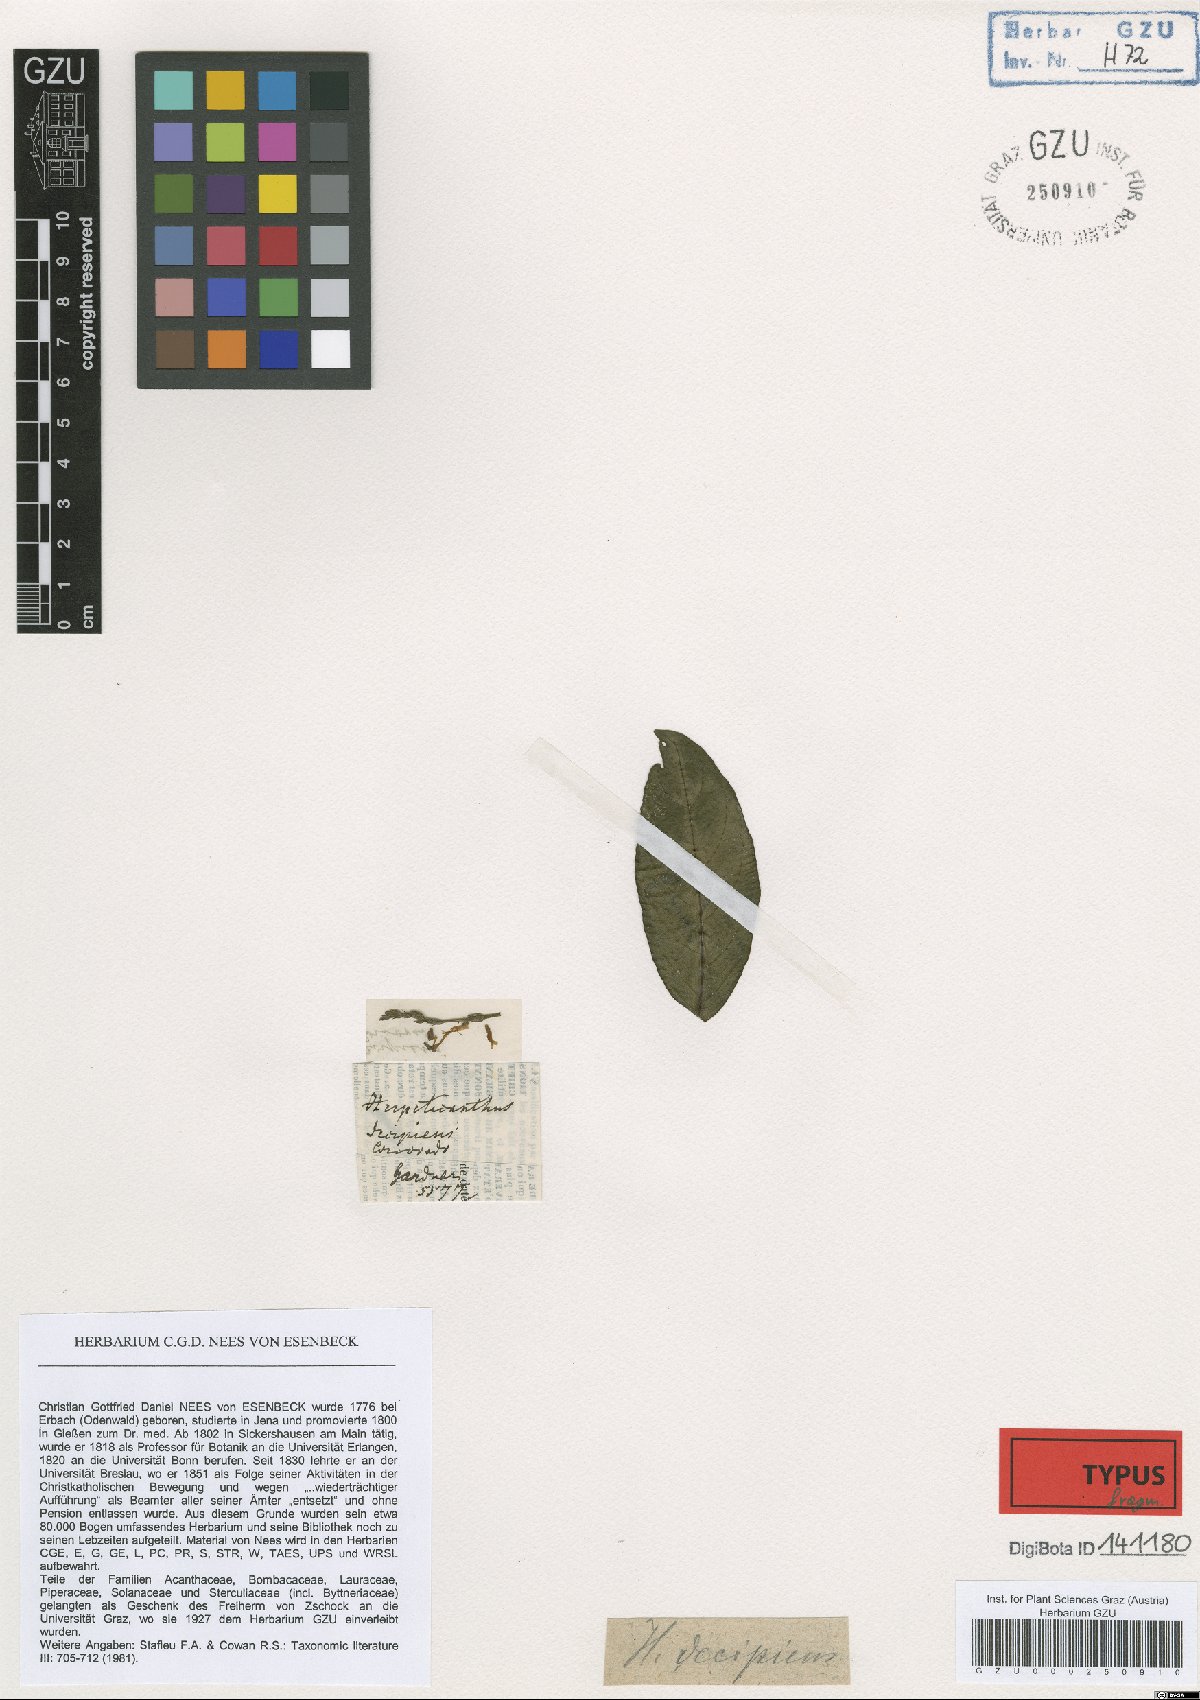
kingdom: Plantae
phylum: Tracheophyta
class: Magnoliopsida
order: Lamiales
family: Acanthaceae
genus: Herpetacanthus
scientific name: Herpetacanthus decipiens
